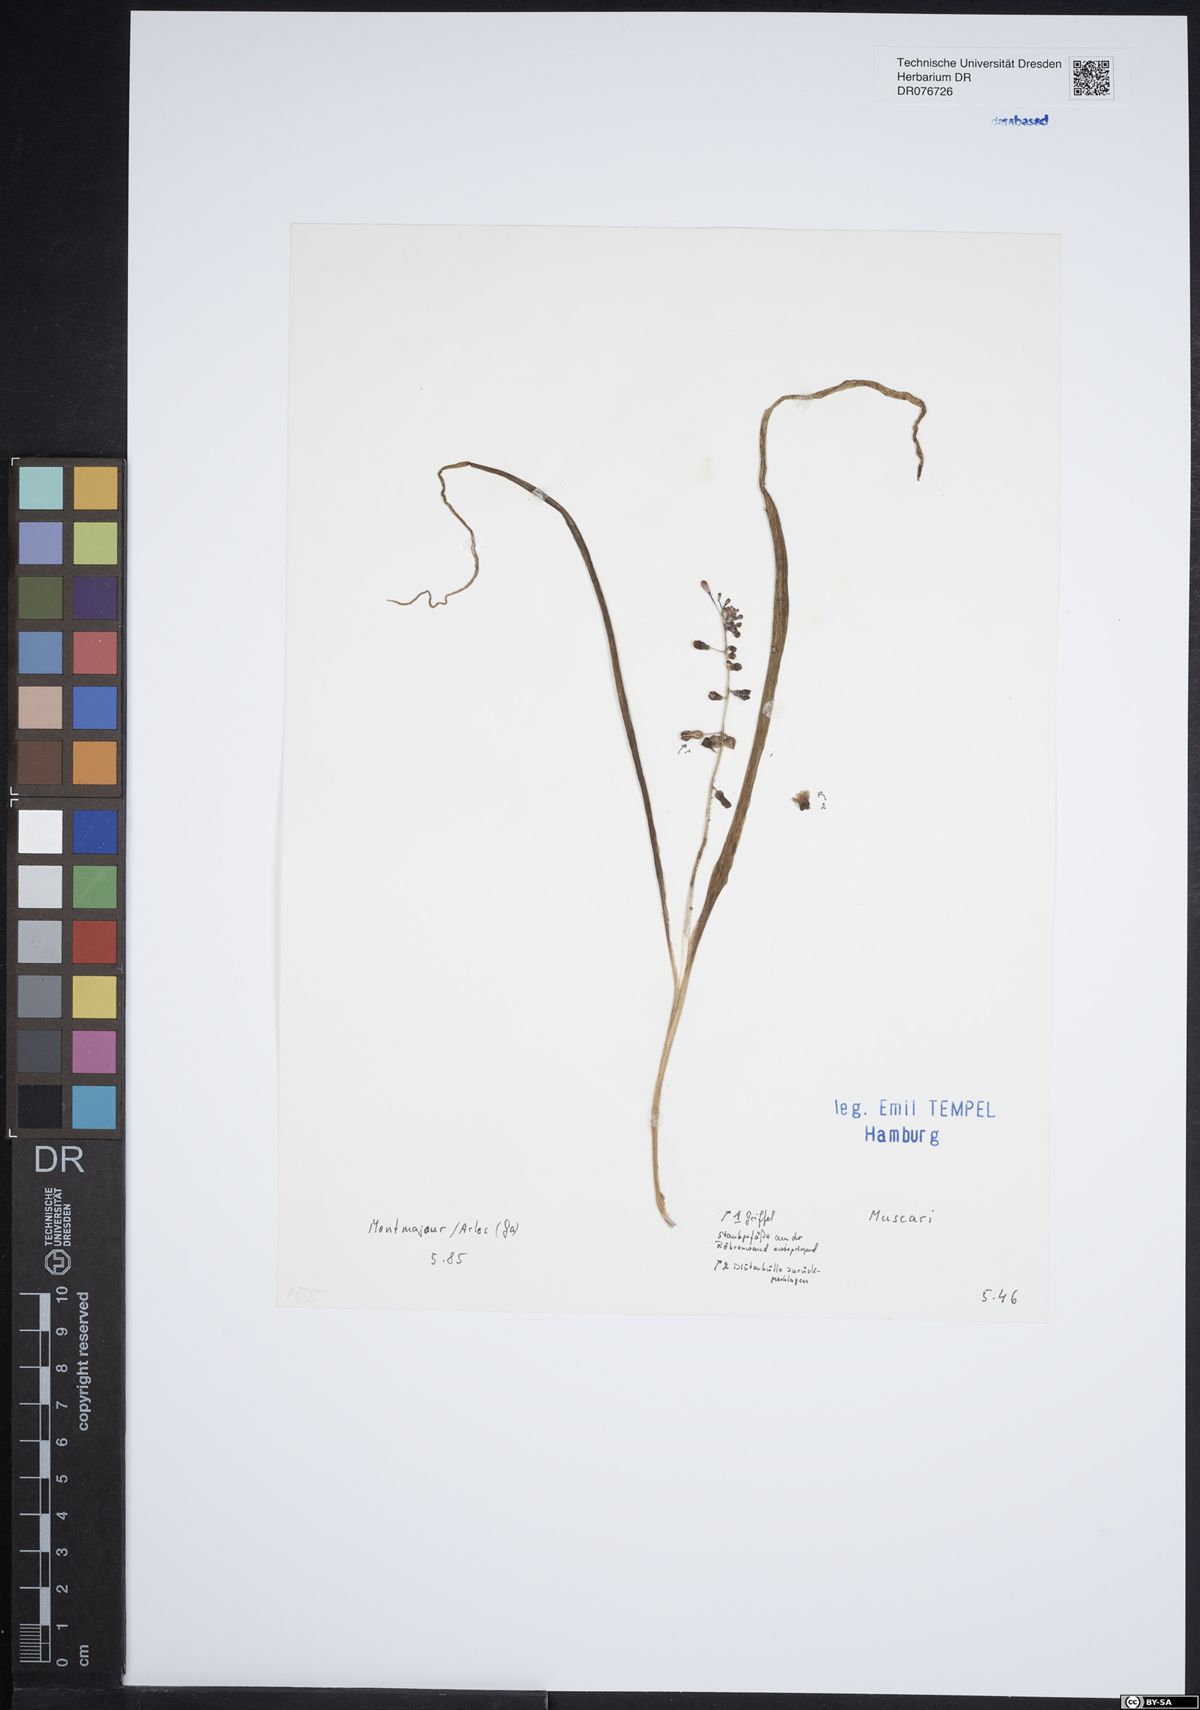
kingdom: Plantae
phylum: Tracheophyta
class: Liliopsida
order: Asparagales
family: Asparagaceae
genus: Muscari
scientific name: Muscari
